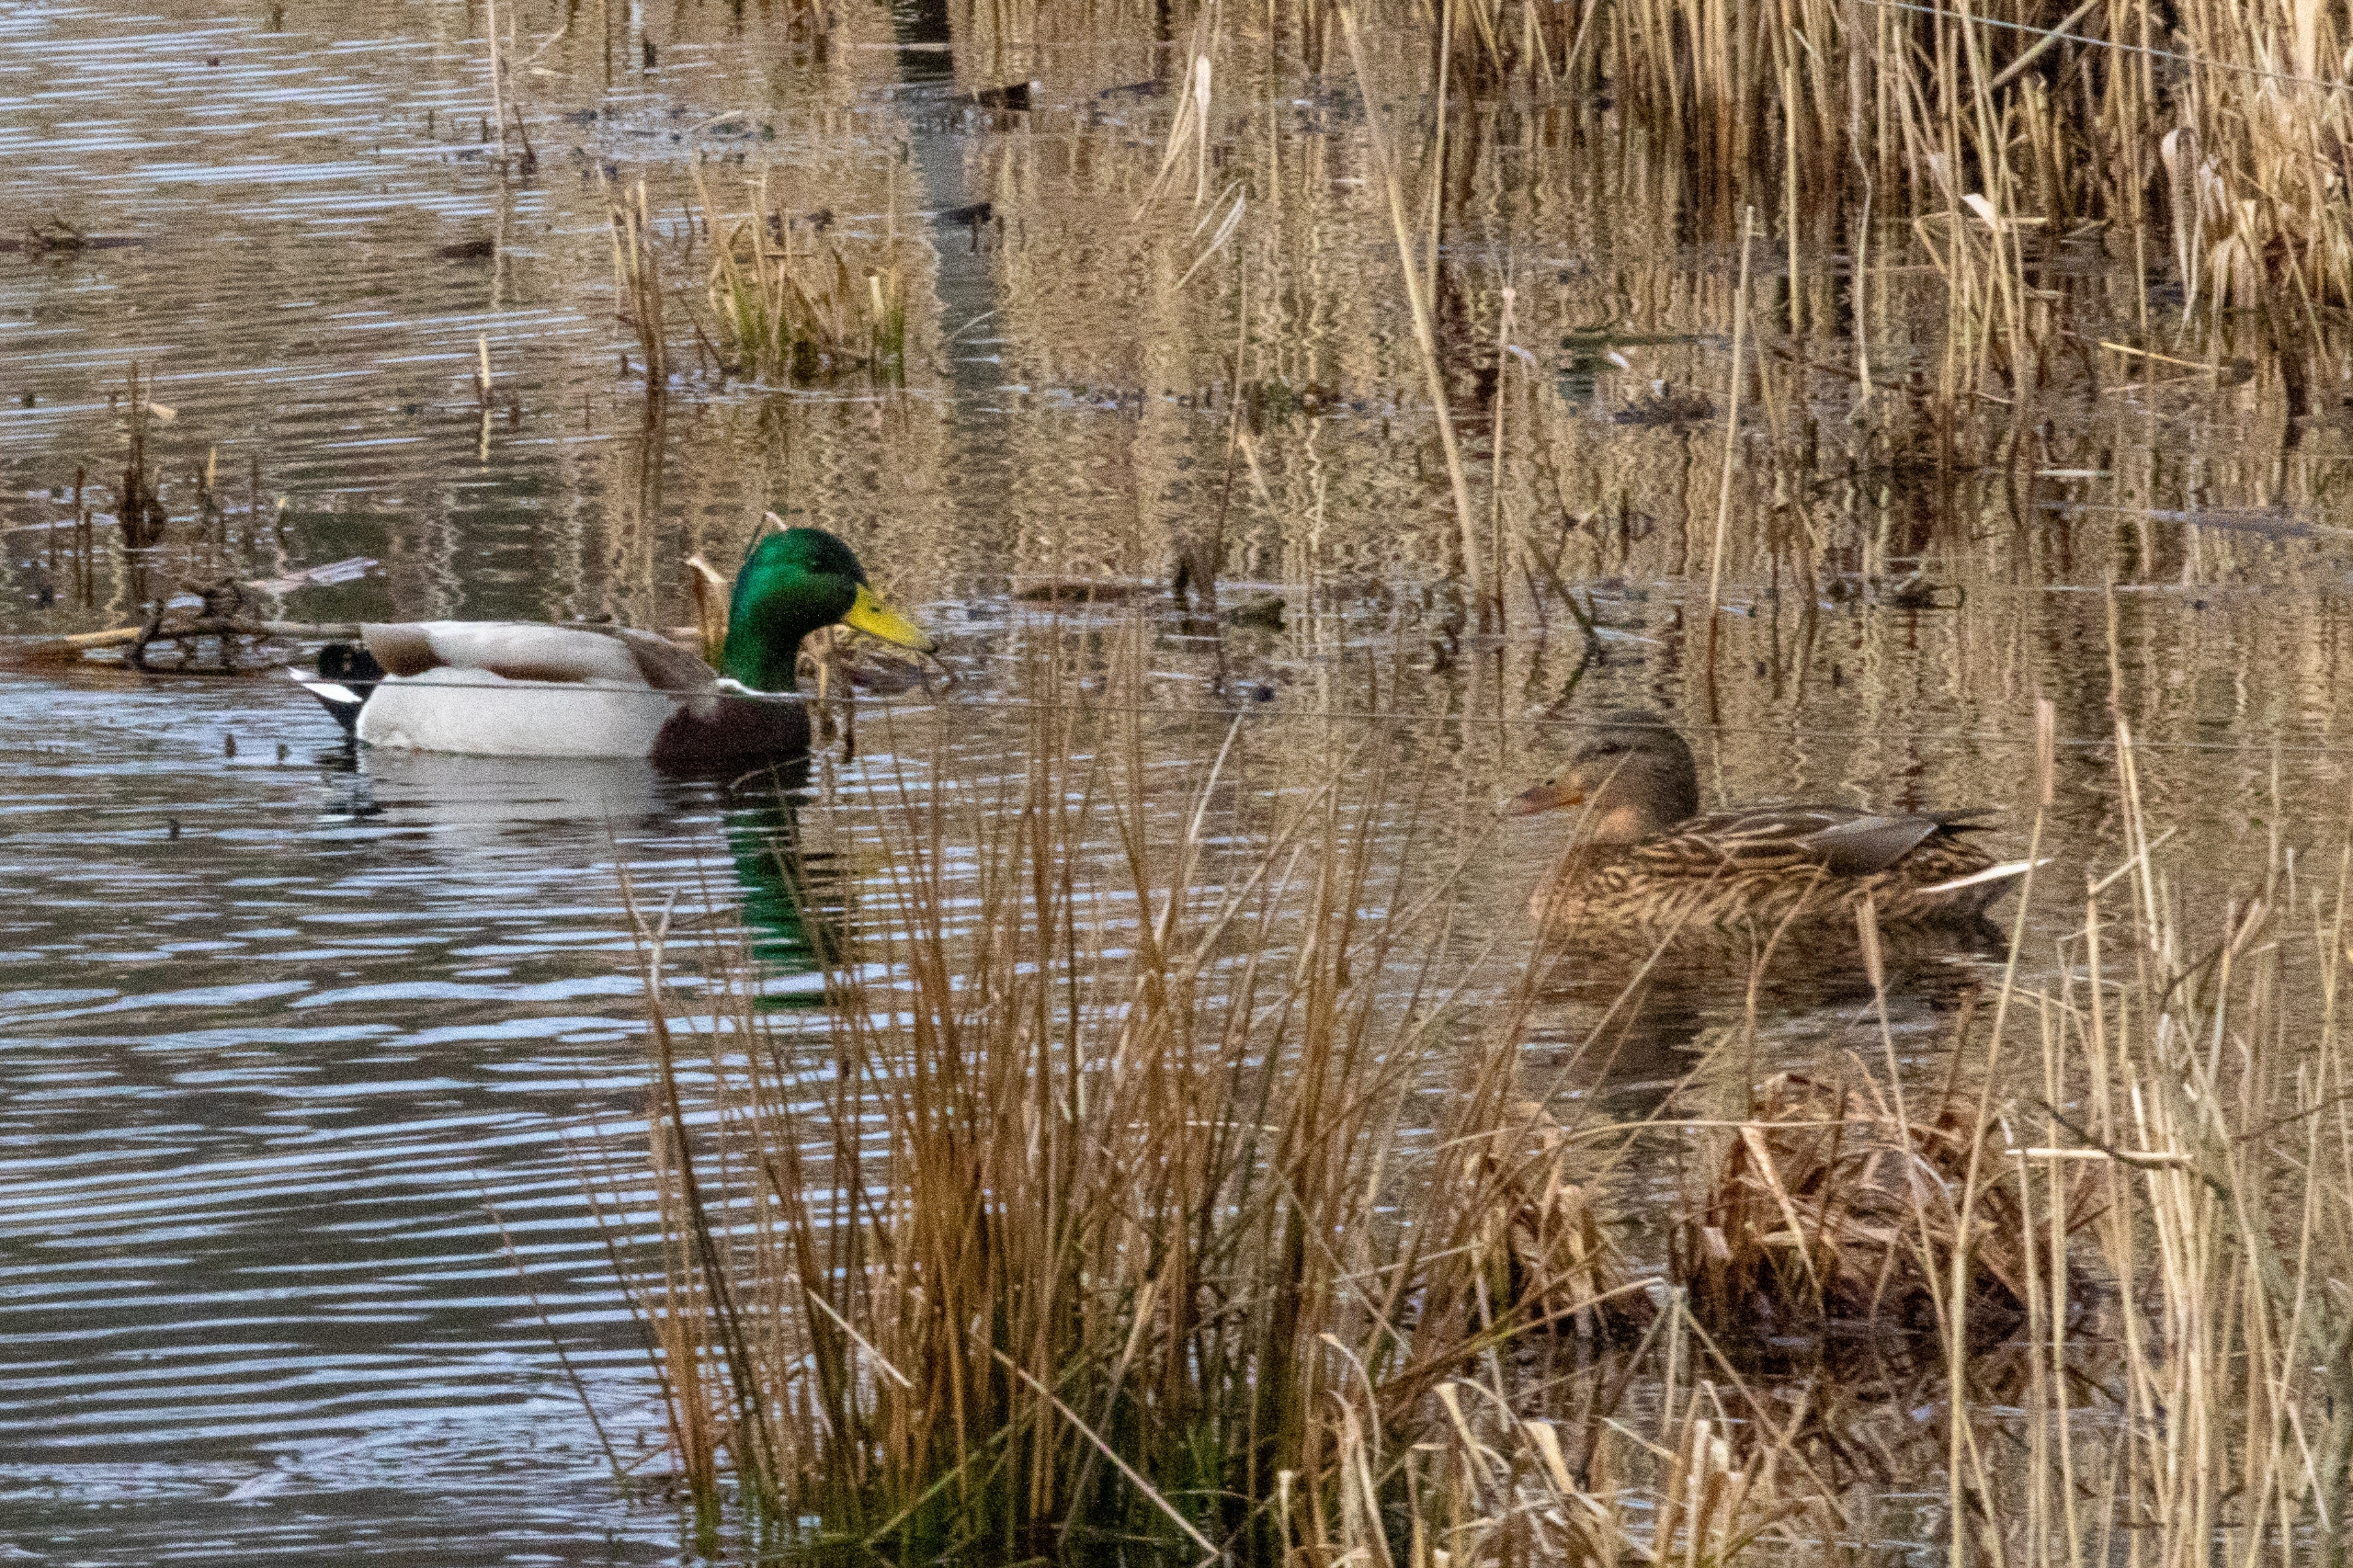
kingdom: Animalia
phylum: Chordata
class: Aves
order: Anseriformes
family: Anatidae
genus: Anas
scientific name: Anas platyrhynchos
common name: Gråand
